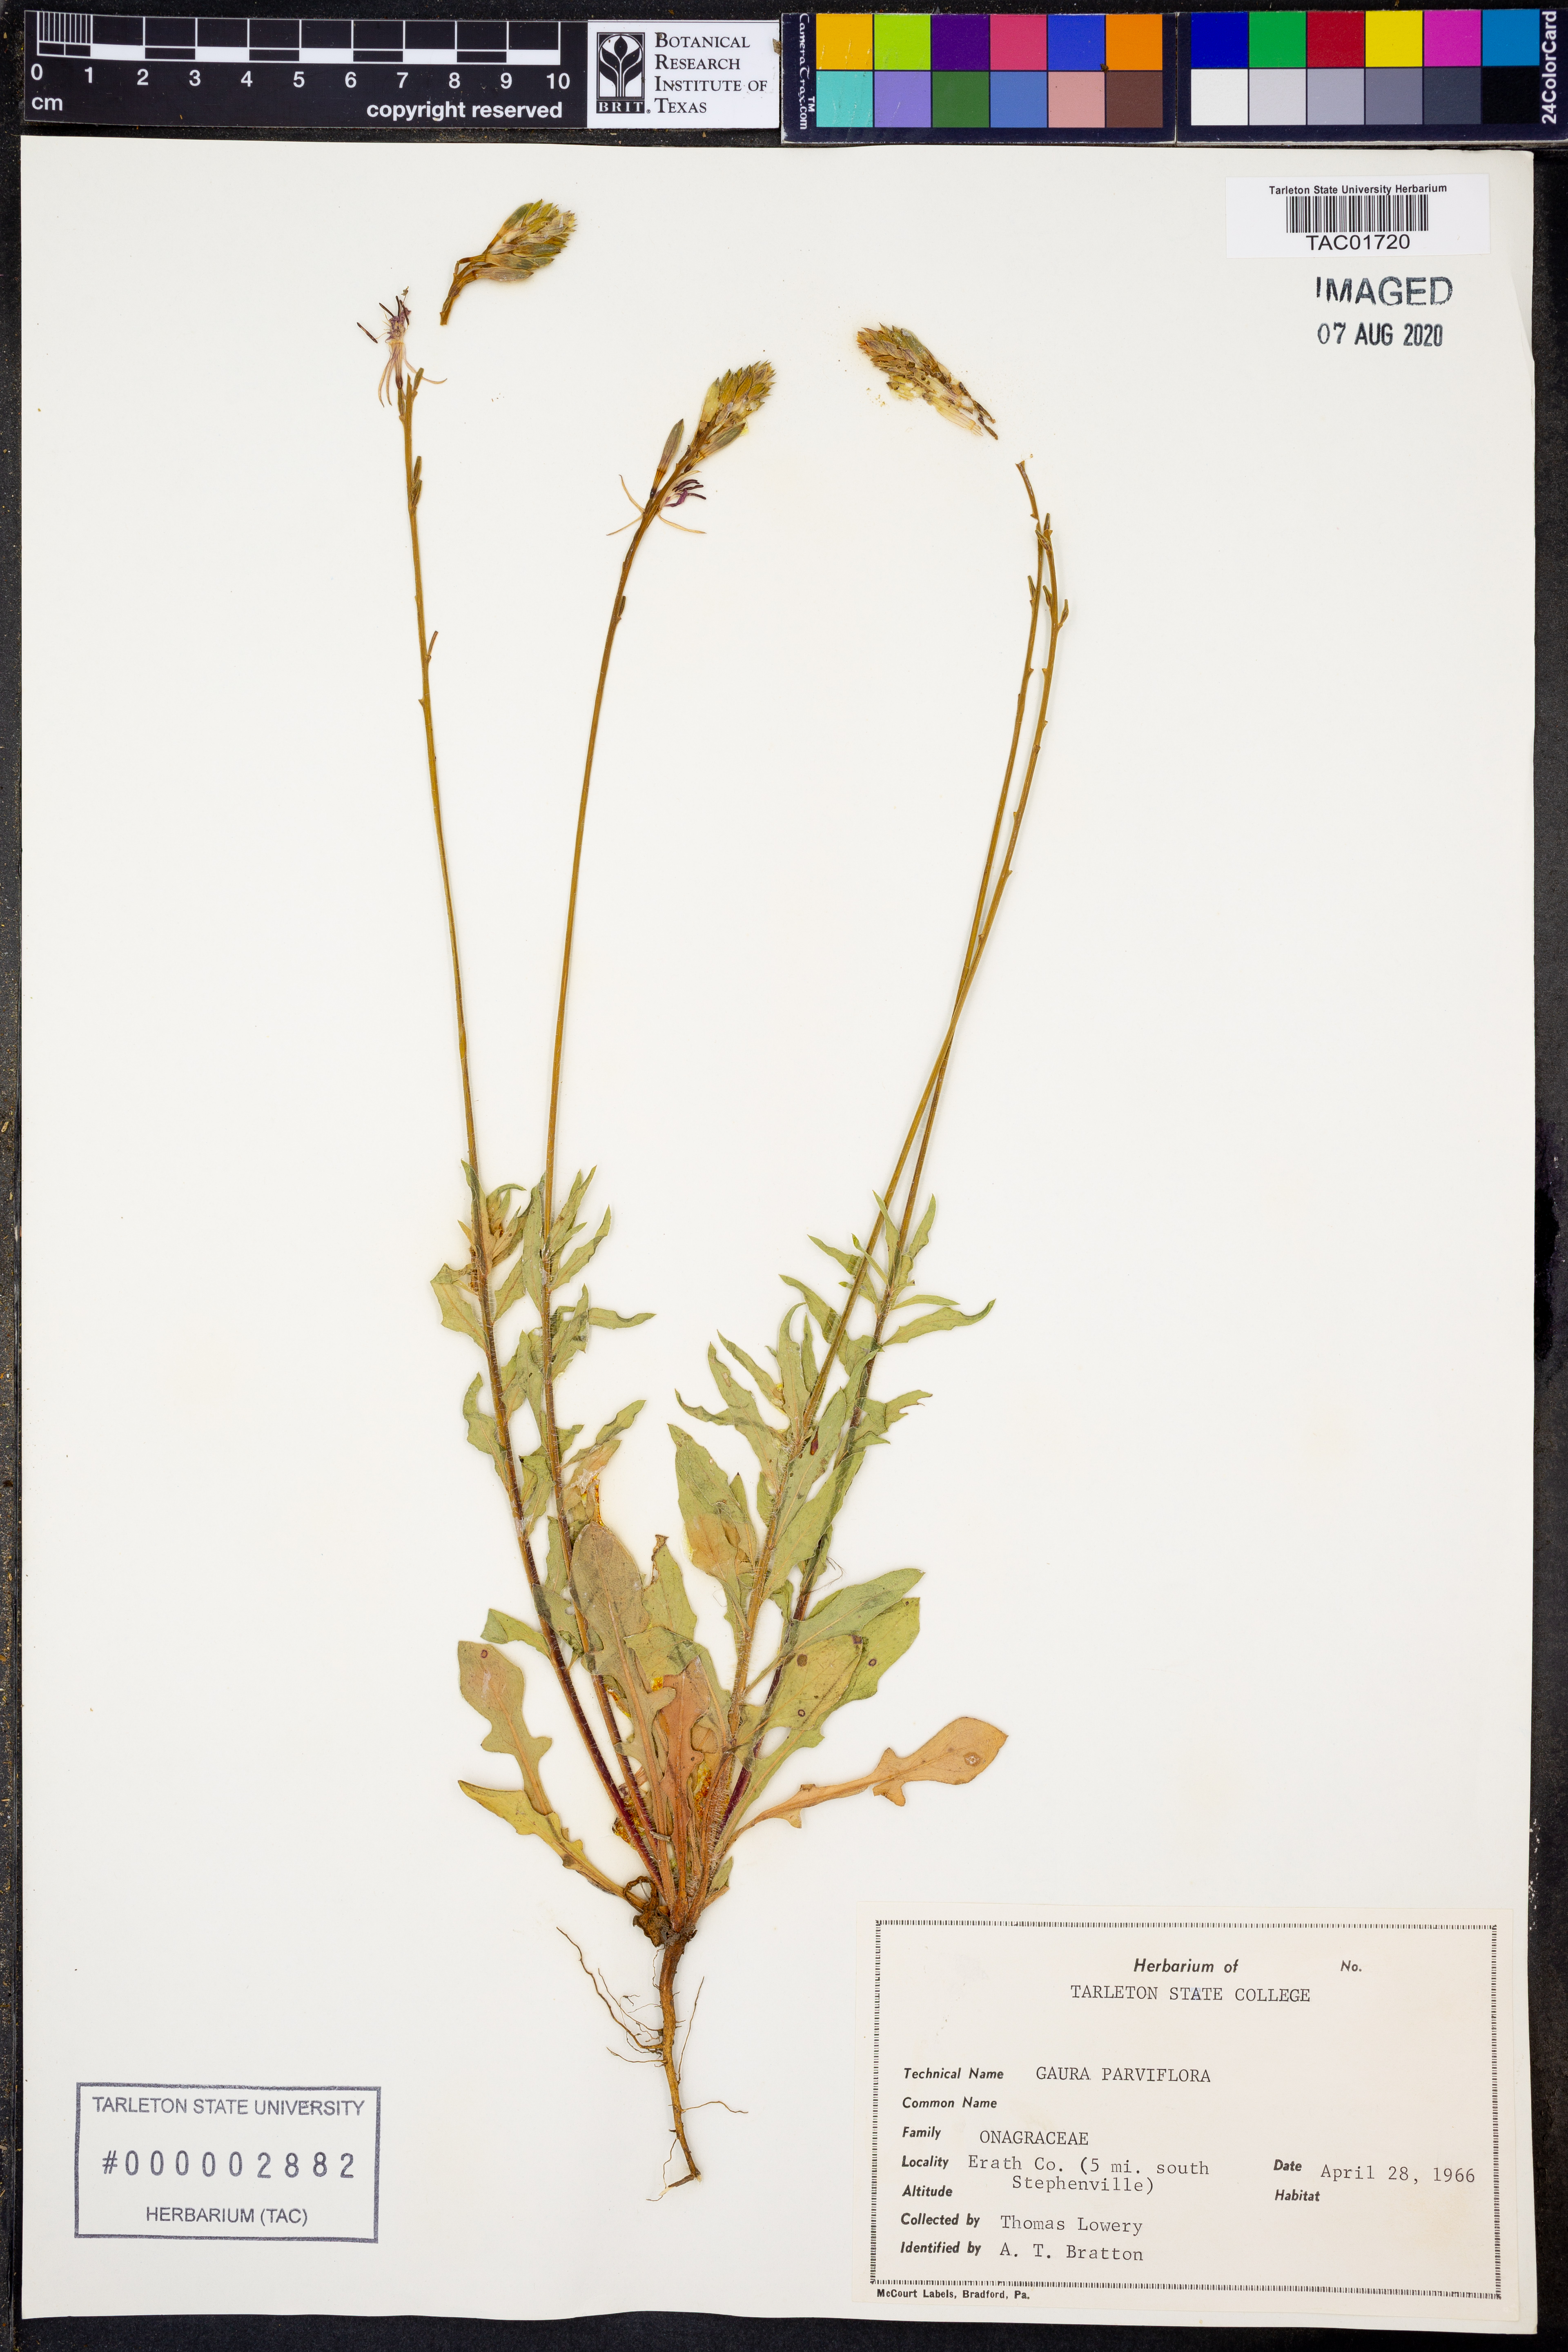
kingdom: Plantae
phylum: Tracheophyta
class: Magnoliopsida
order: Myrtales
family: Onagraceae
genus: Oenothera
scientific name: Oenothera curtiflora
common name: Velvetweed
